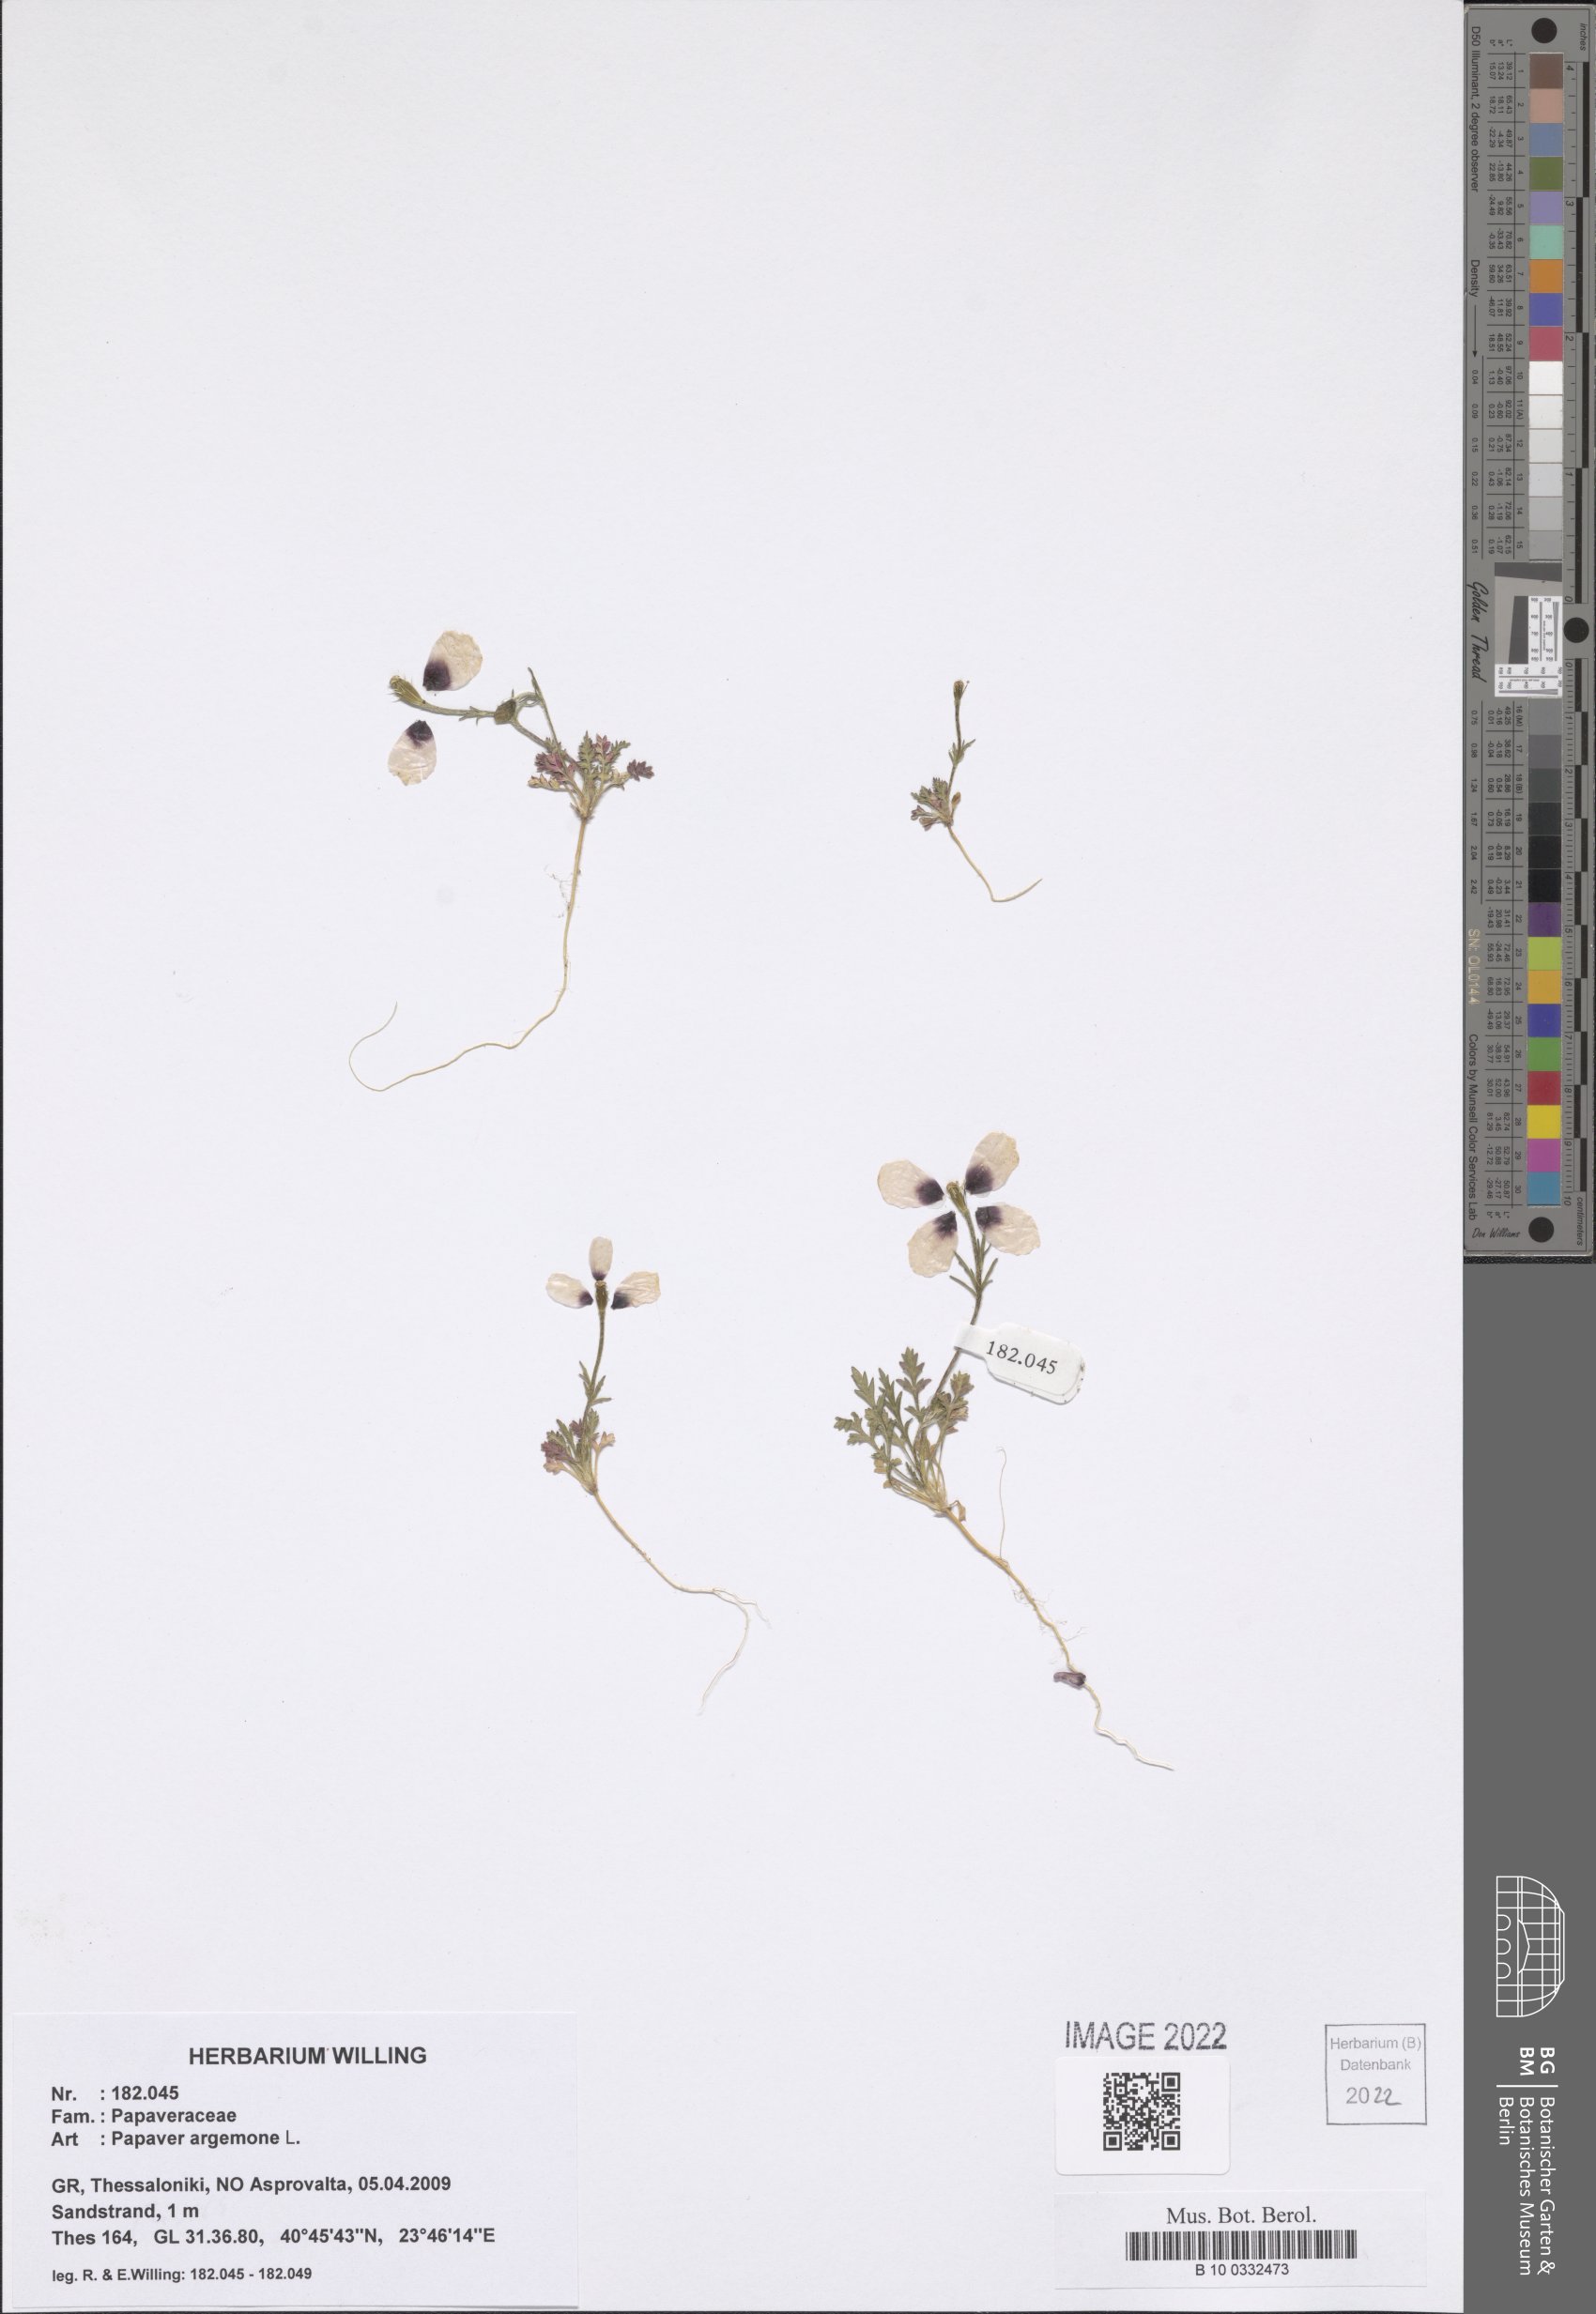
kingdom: Plantae
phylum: Tracheophyta
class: Magnoliopsida
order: Ranunculales
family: Papaveraceae
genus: Roemeria
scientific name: Roemeria argemone
